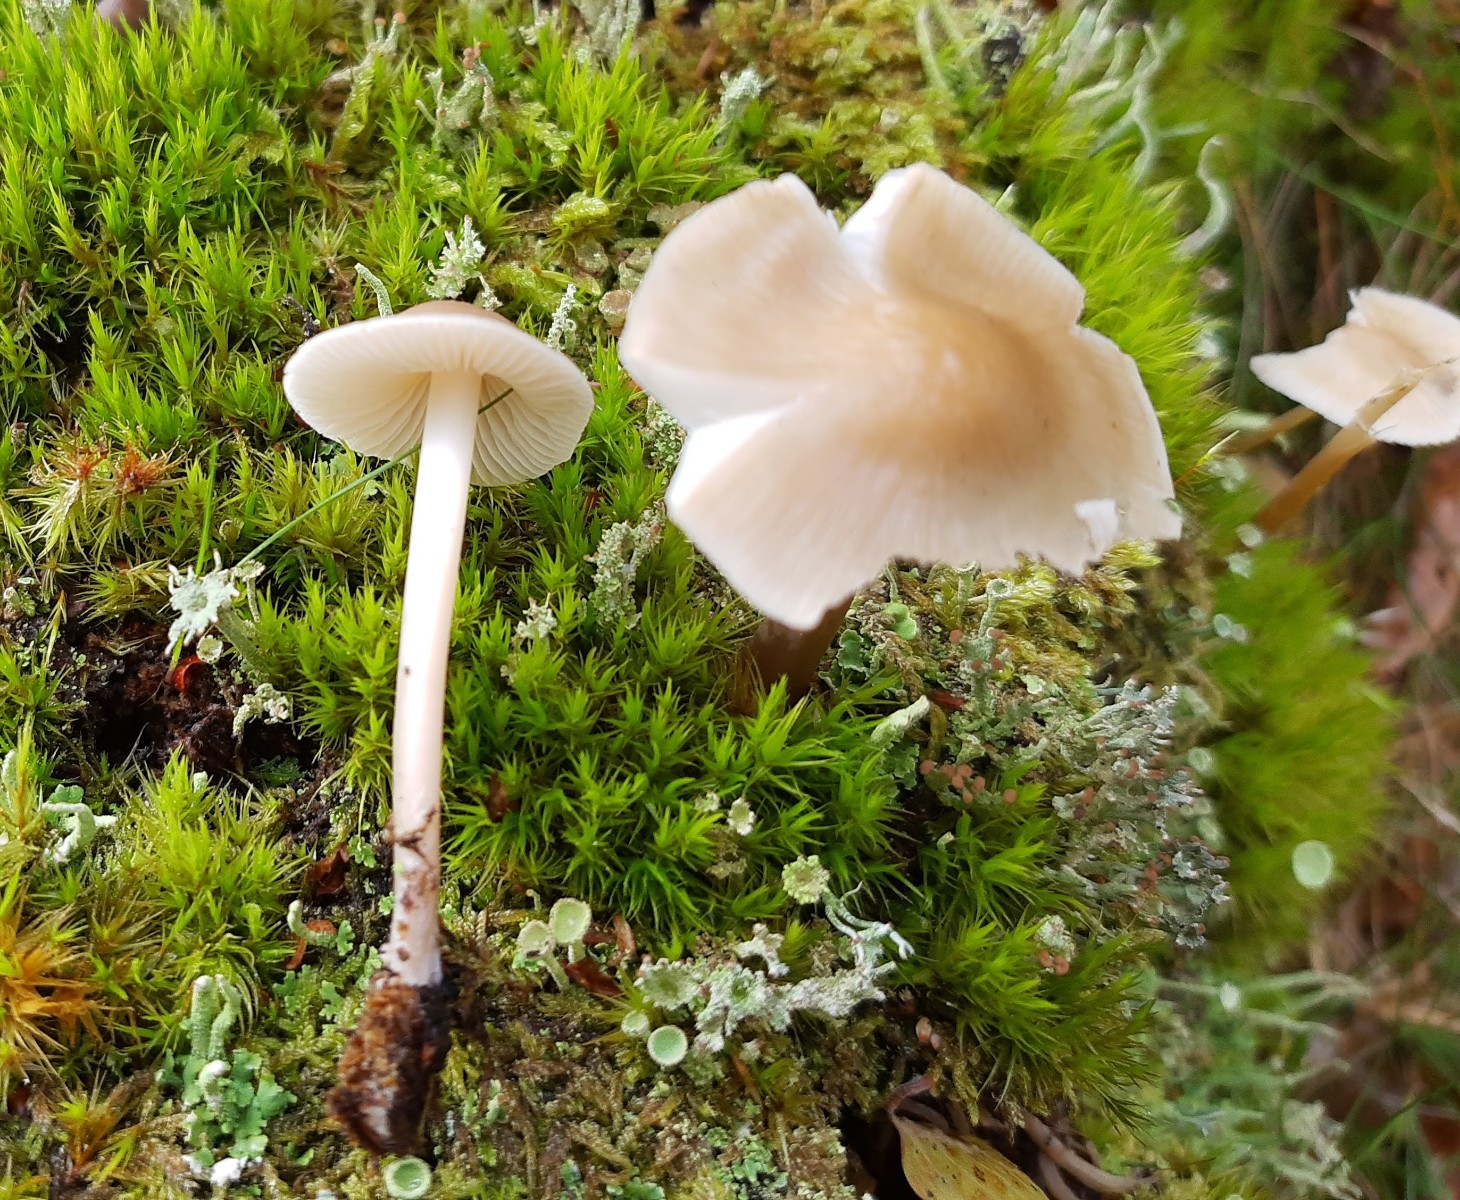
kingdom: Fungi
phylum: Basidiomycota
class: Agaricomycetes
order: Agaricales
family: Mycenaceae
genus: Mycena
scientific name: Mycena galericulata
